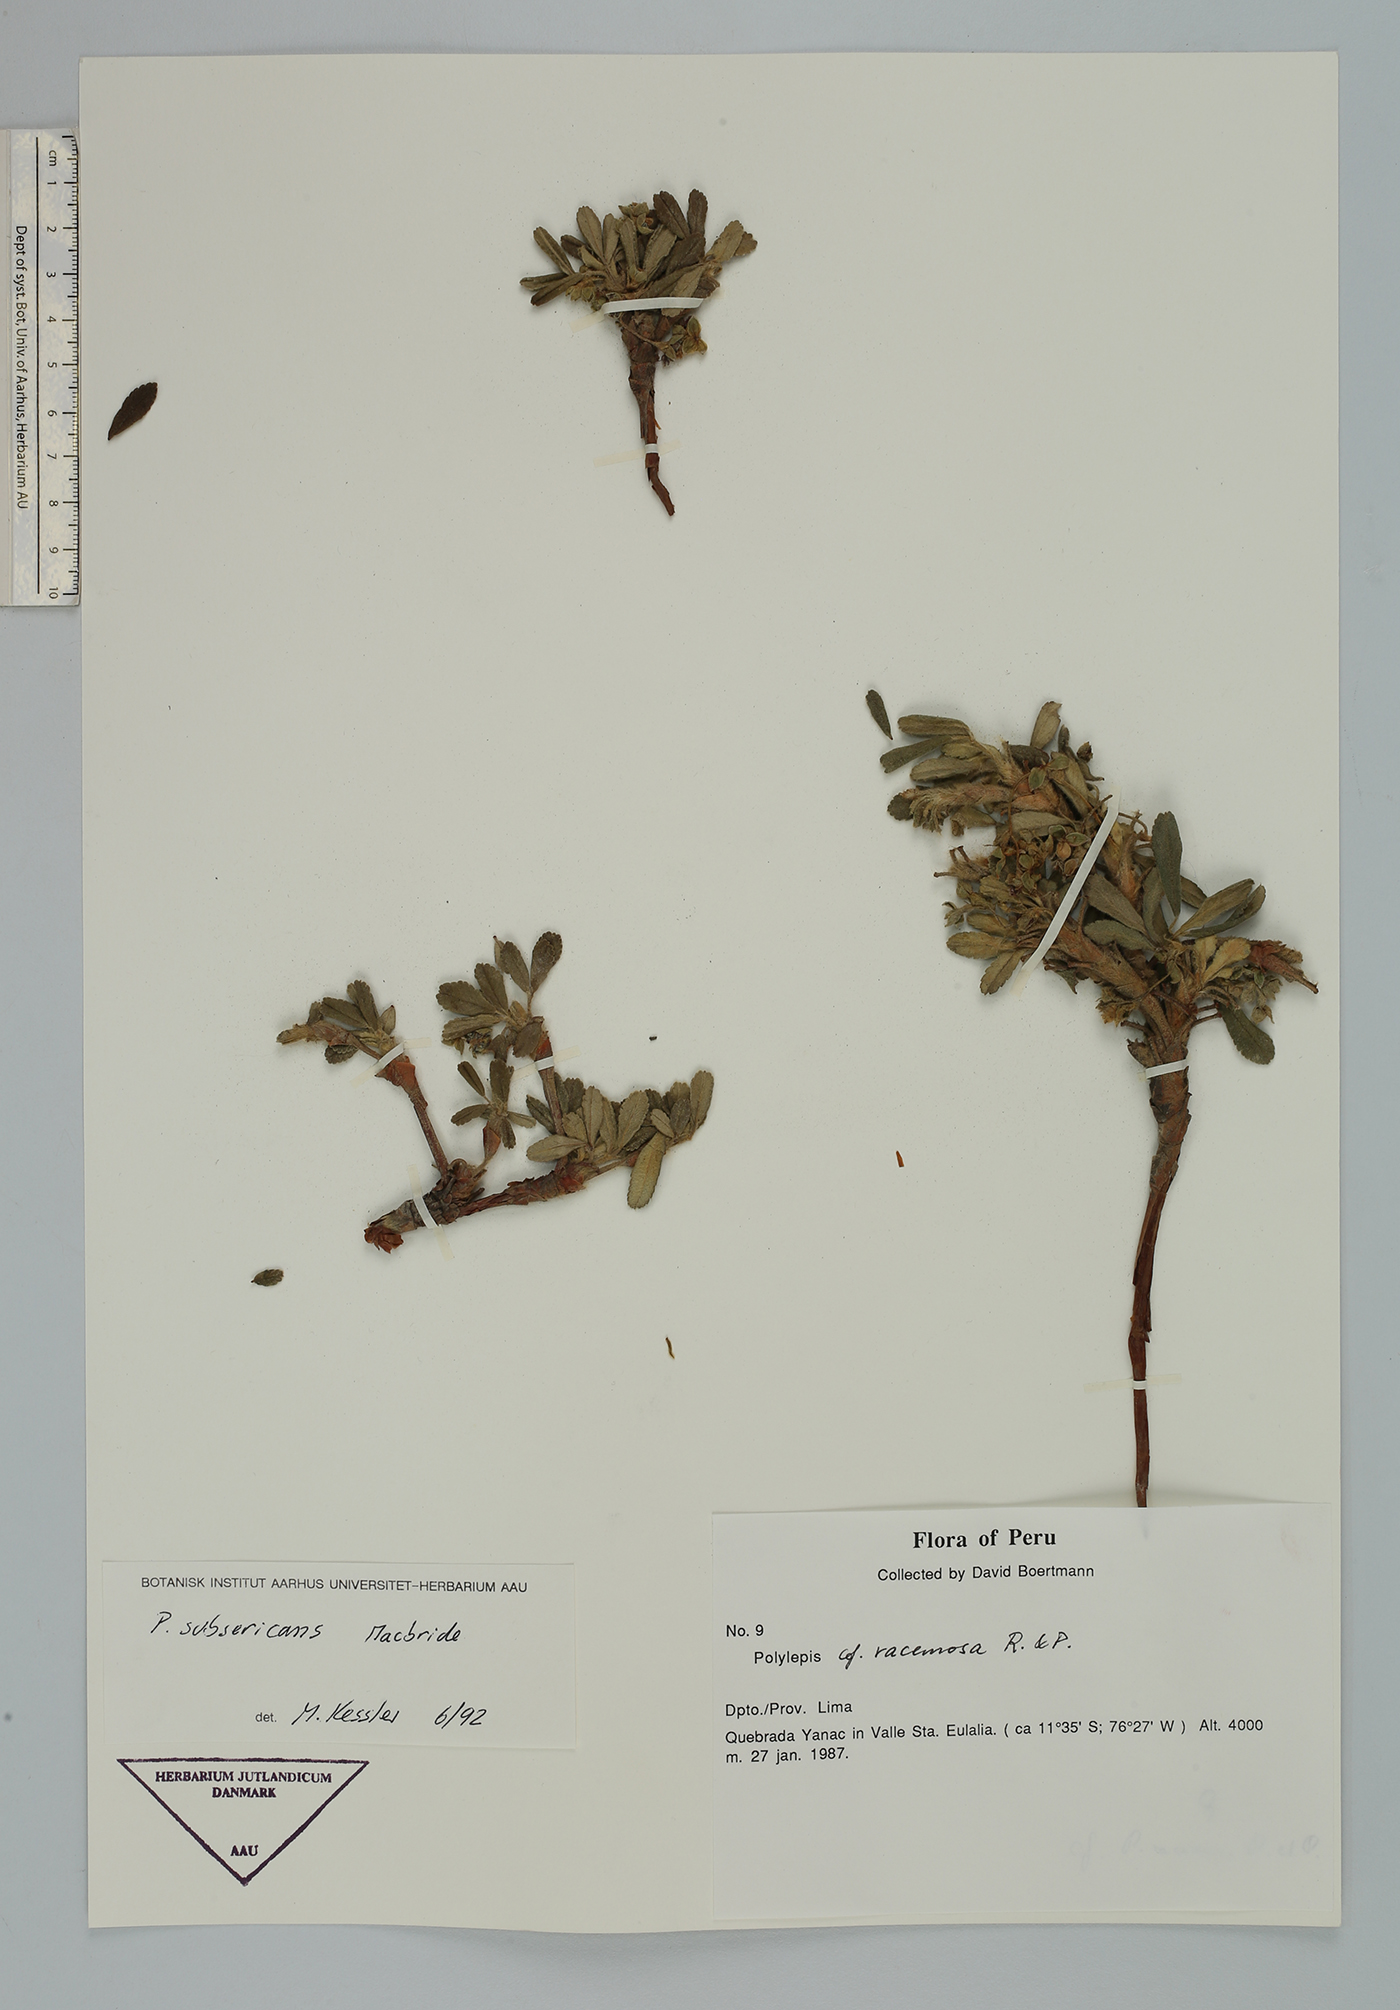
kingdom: Plantae
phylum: Tracheophyta
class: Magnoliopsida
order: Rosales
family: Rosaceae
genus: Polylepis
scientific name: Polylepis flavipila
